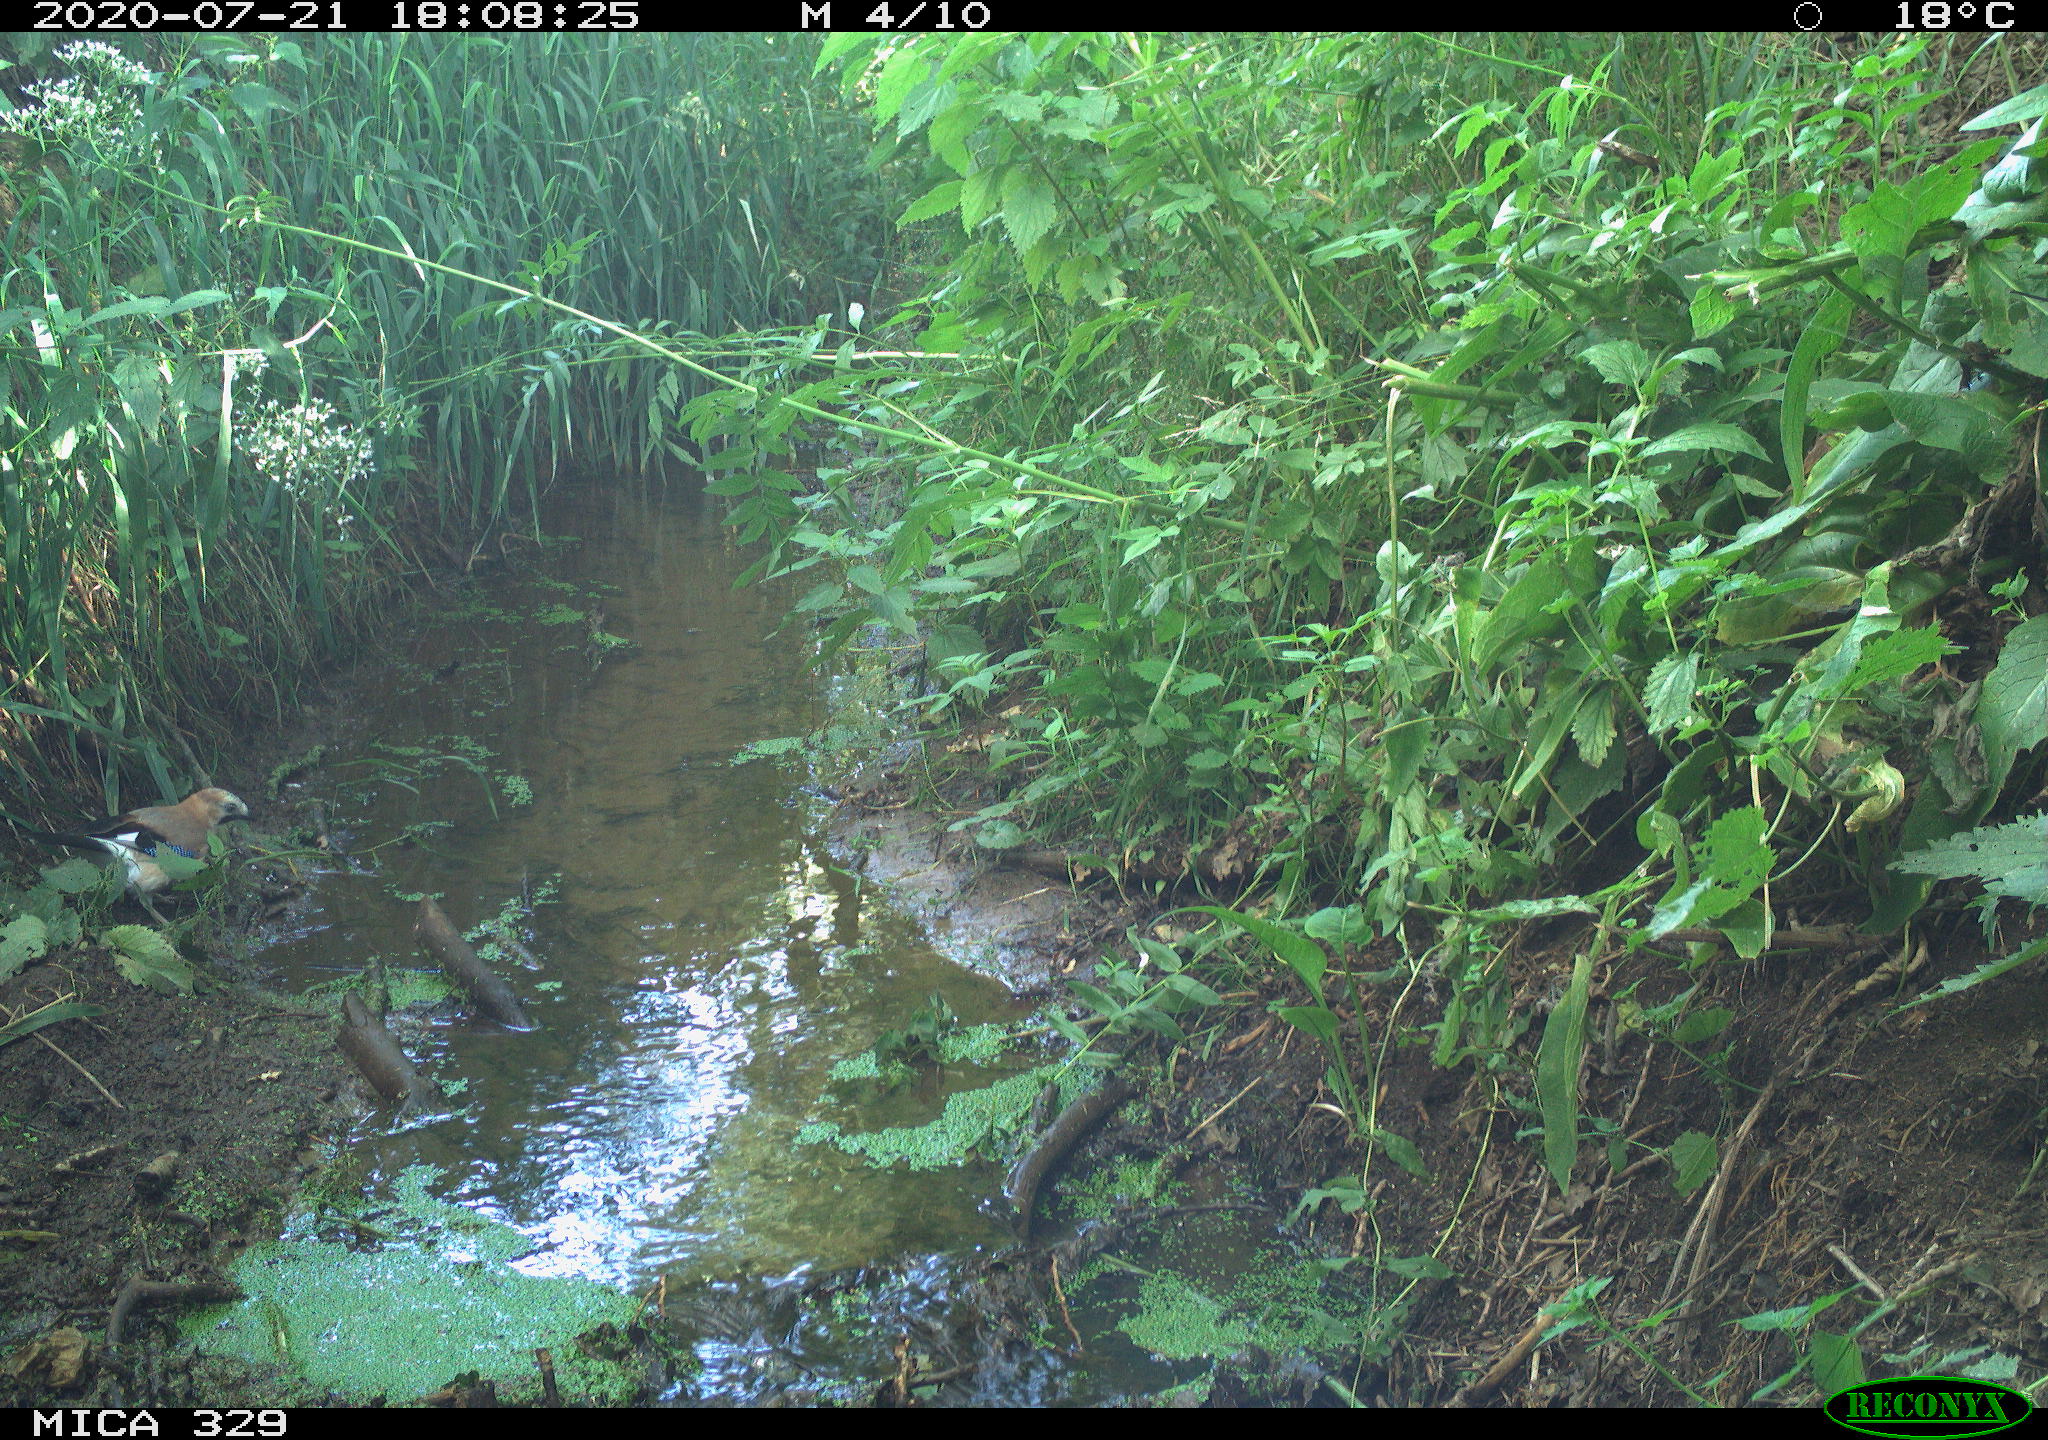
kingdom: Animalia
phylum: Chordata
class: Aves
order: Passeriformes
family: Corvidae
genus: Garrulus
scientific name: Garrulus glandarius
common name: Eurasian jay
